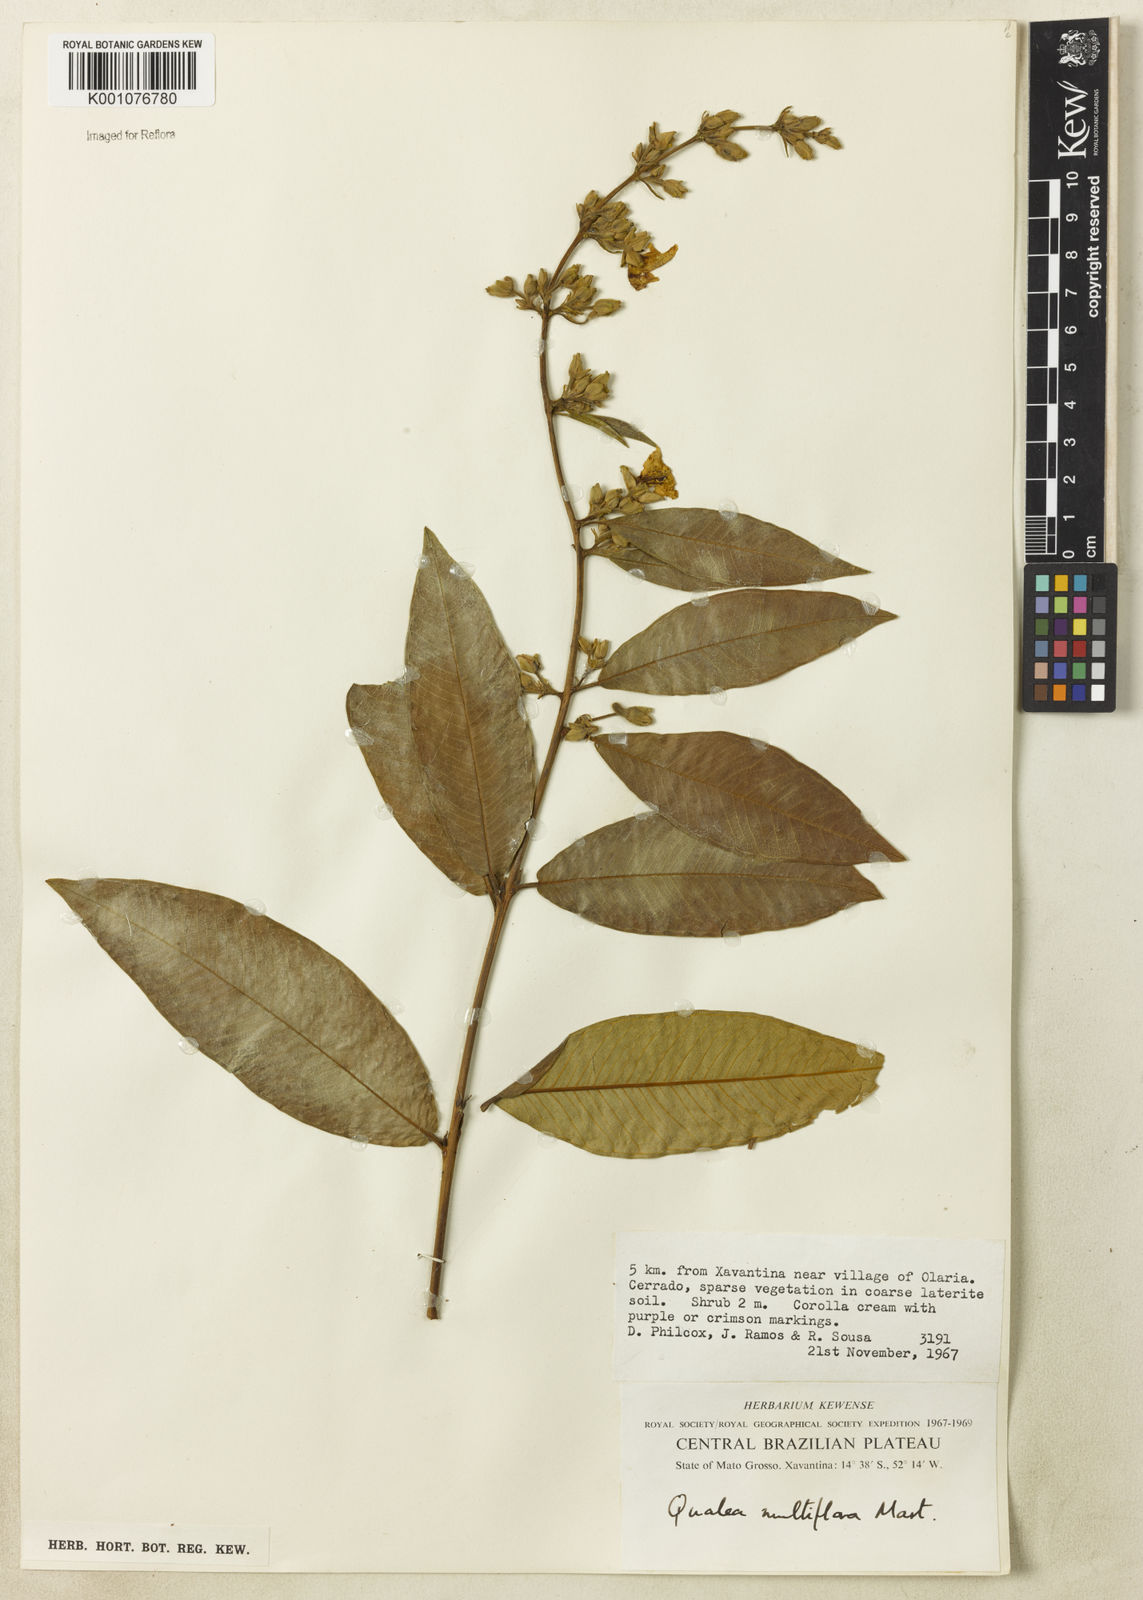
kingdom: Plantae
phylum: Tracheophyta
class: Magnoliopsida
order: Myrtales
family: Vochysiaceae
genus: Qualea
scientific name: Qualea multiflora
